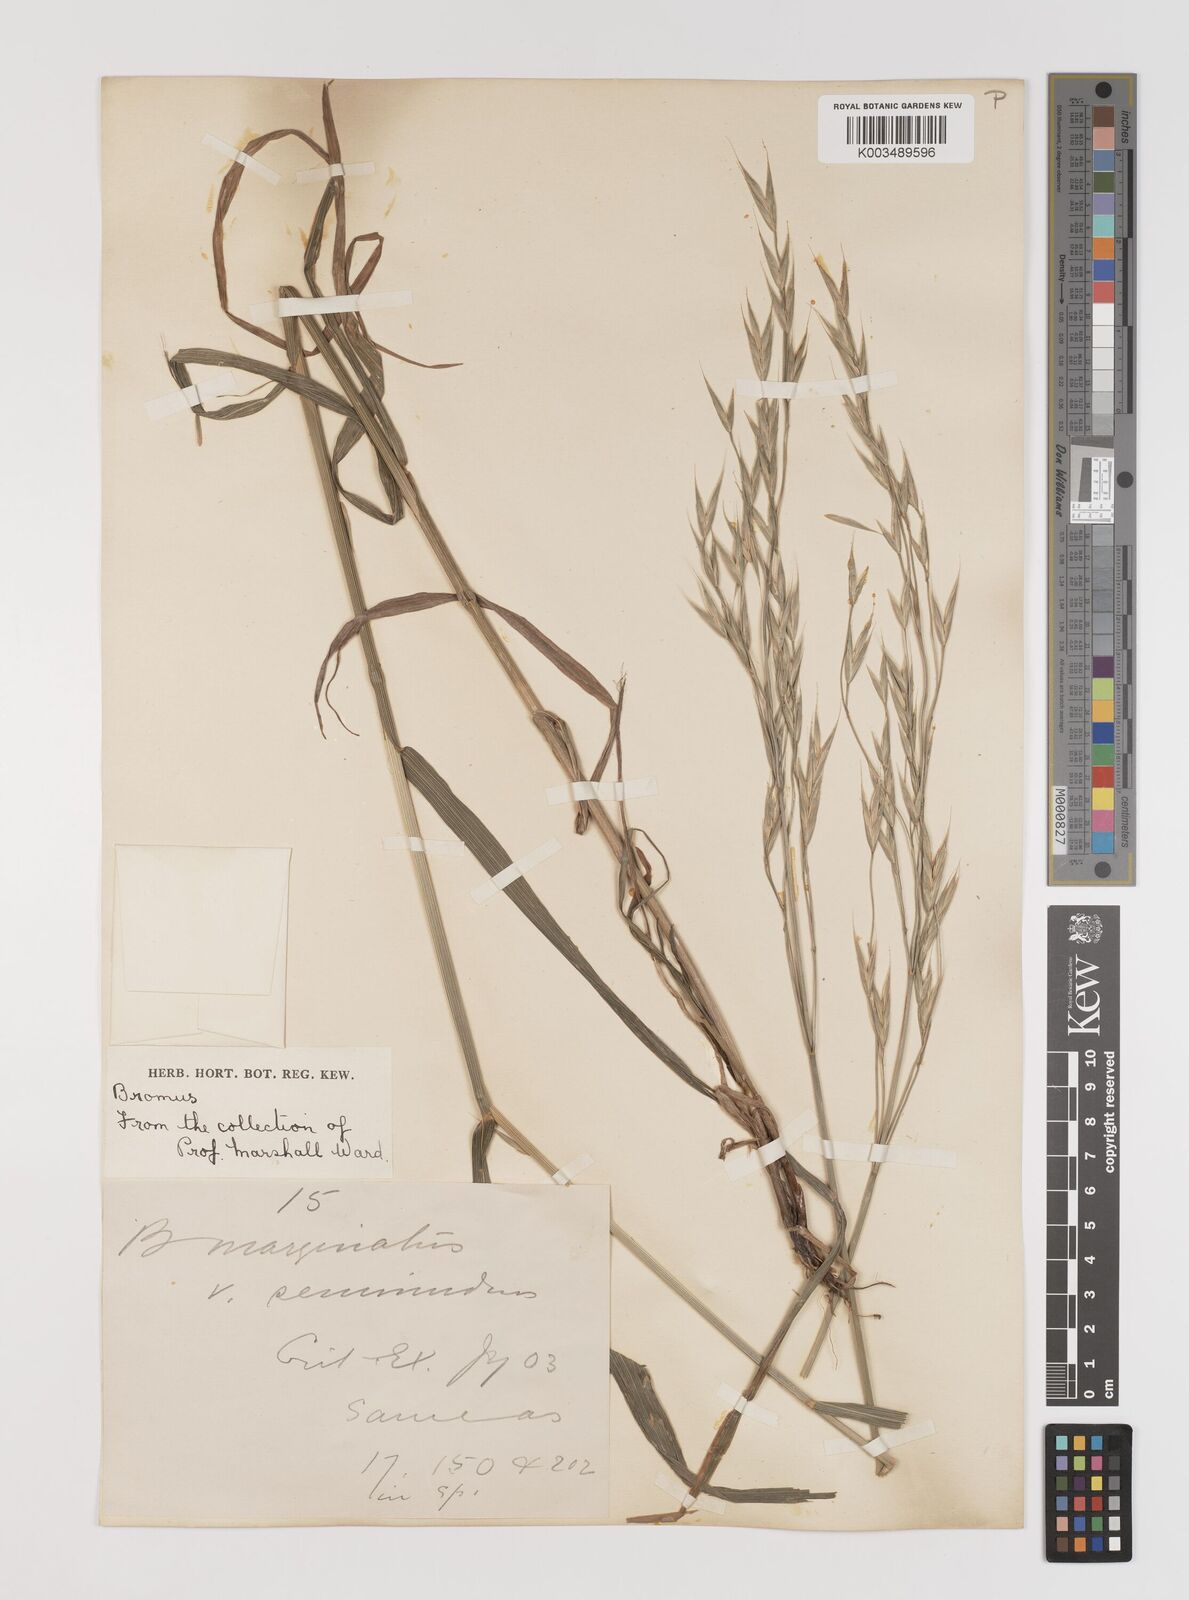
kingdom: Plantae
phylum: Tracheophyta
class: Liliopsida
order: Poales
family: Poaceae
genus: Bromus
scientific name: Bromus carinatus
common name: Mountain brome
